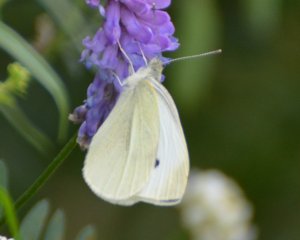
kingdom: Animalia
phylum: Arthropoda
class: Insecta
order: Lepidoptera
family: Pieridae
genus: Pieris
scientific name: Pieris rapae
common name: Cabbage White
